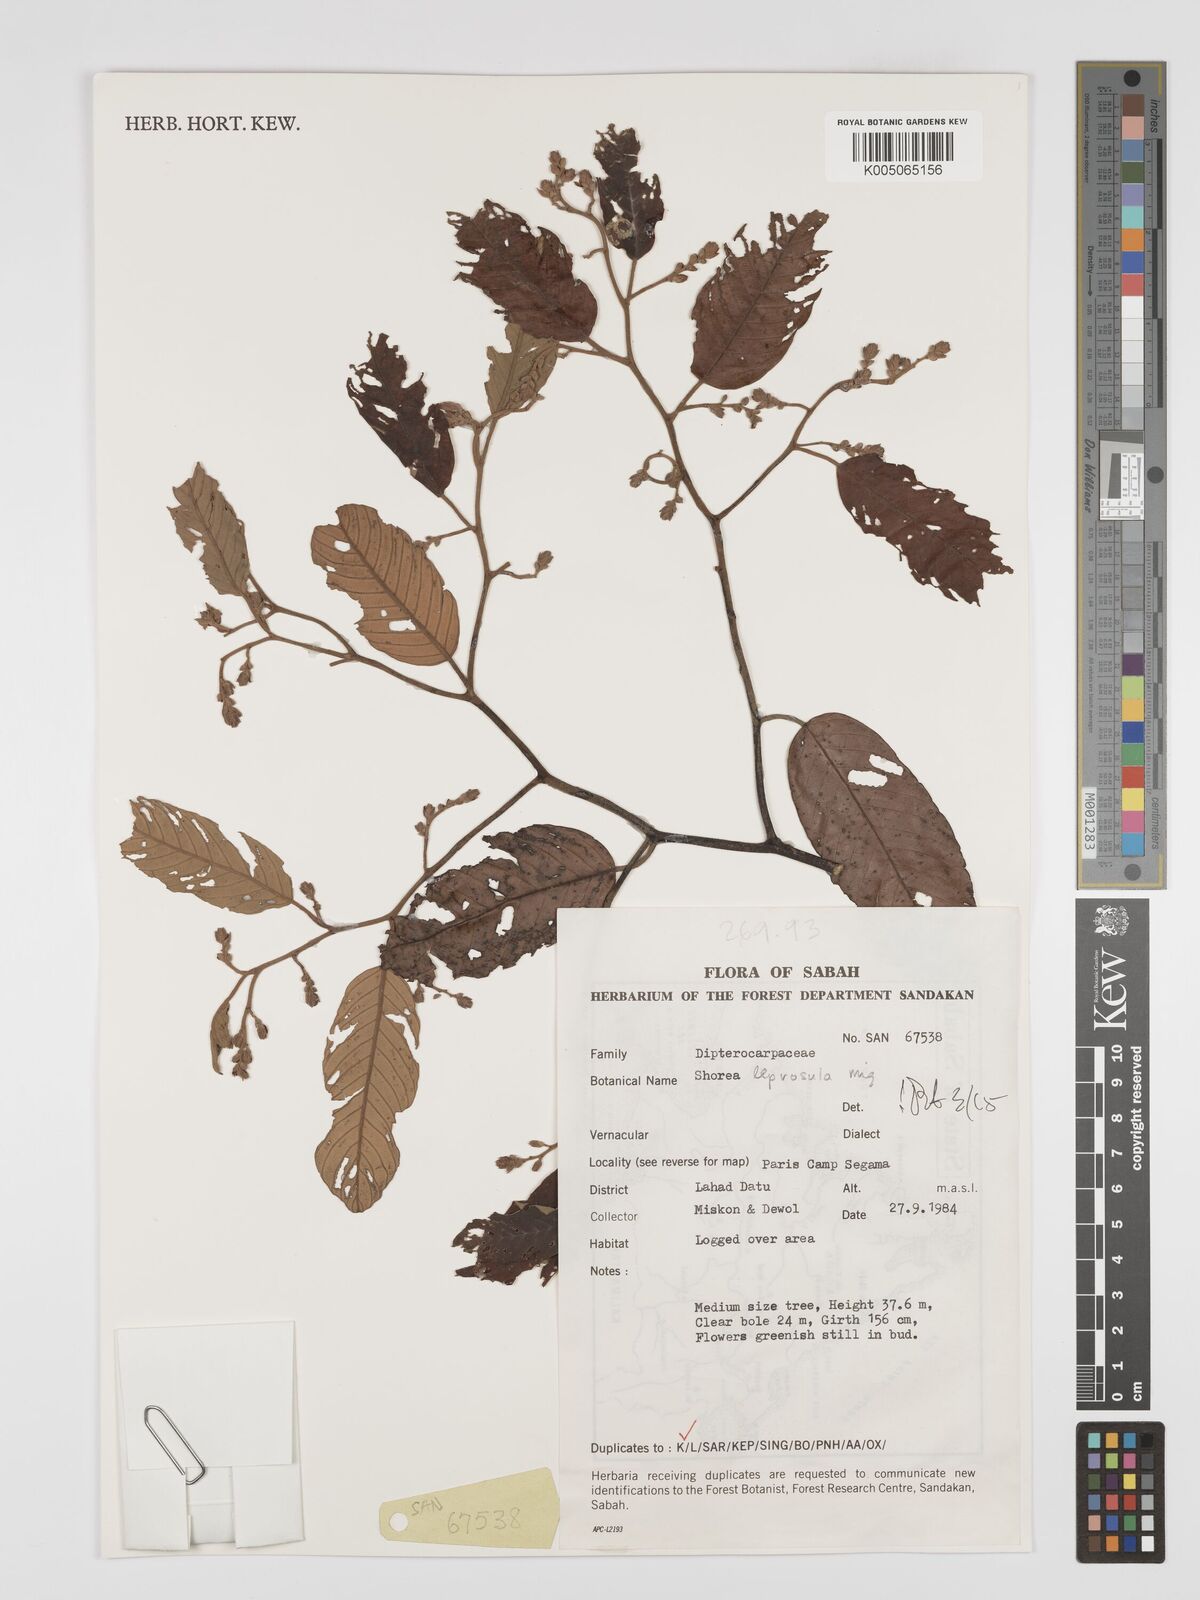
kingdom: Plantae
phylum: Tracheophyta
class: Magnoliopsida
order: Malvales
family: Dipterocarpaceae
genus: Shorea
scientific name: Shorea leprosula
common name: Light red meranti
